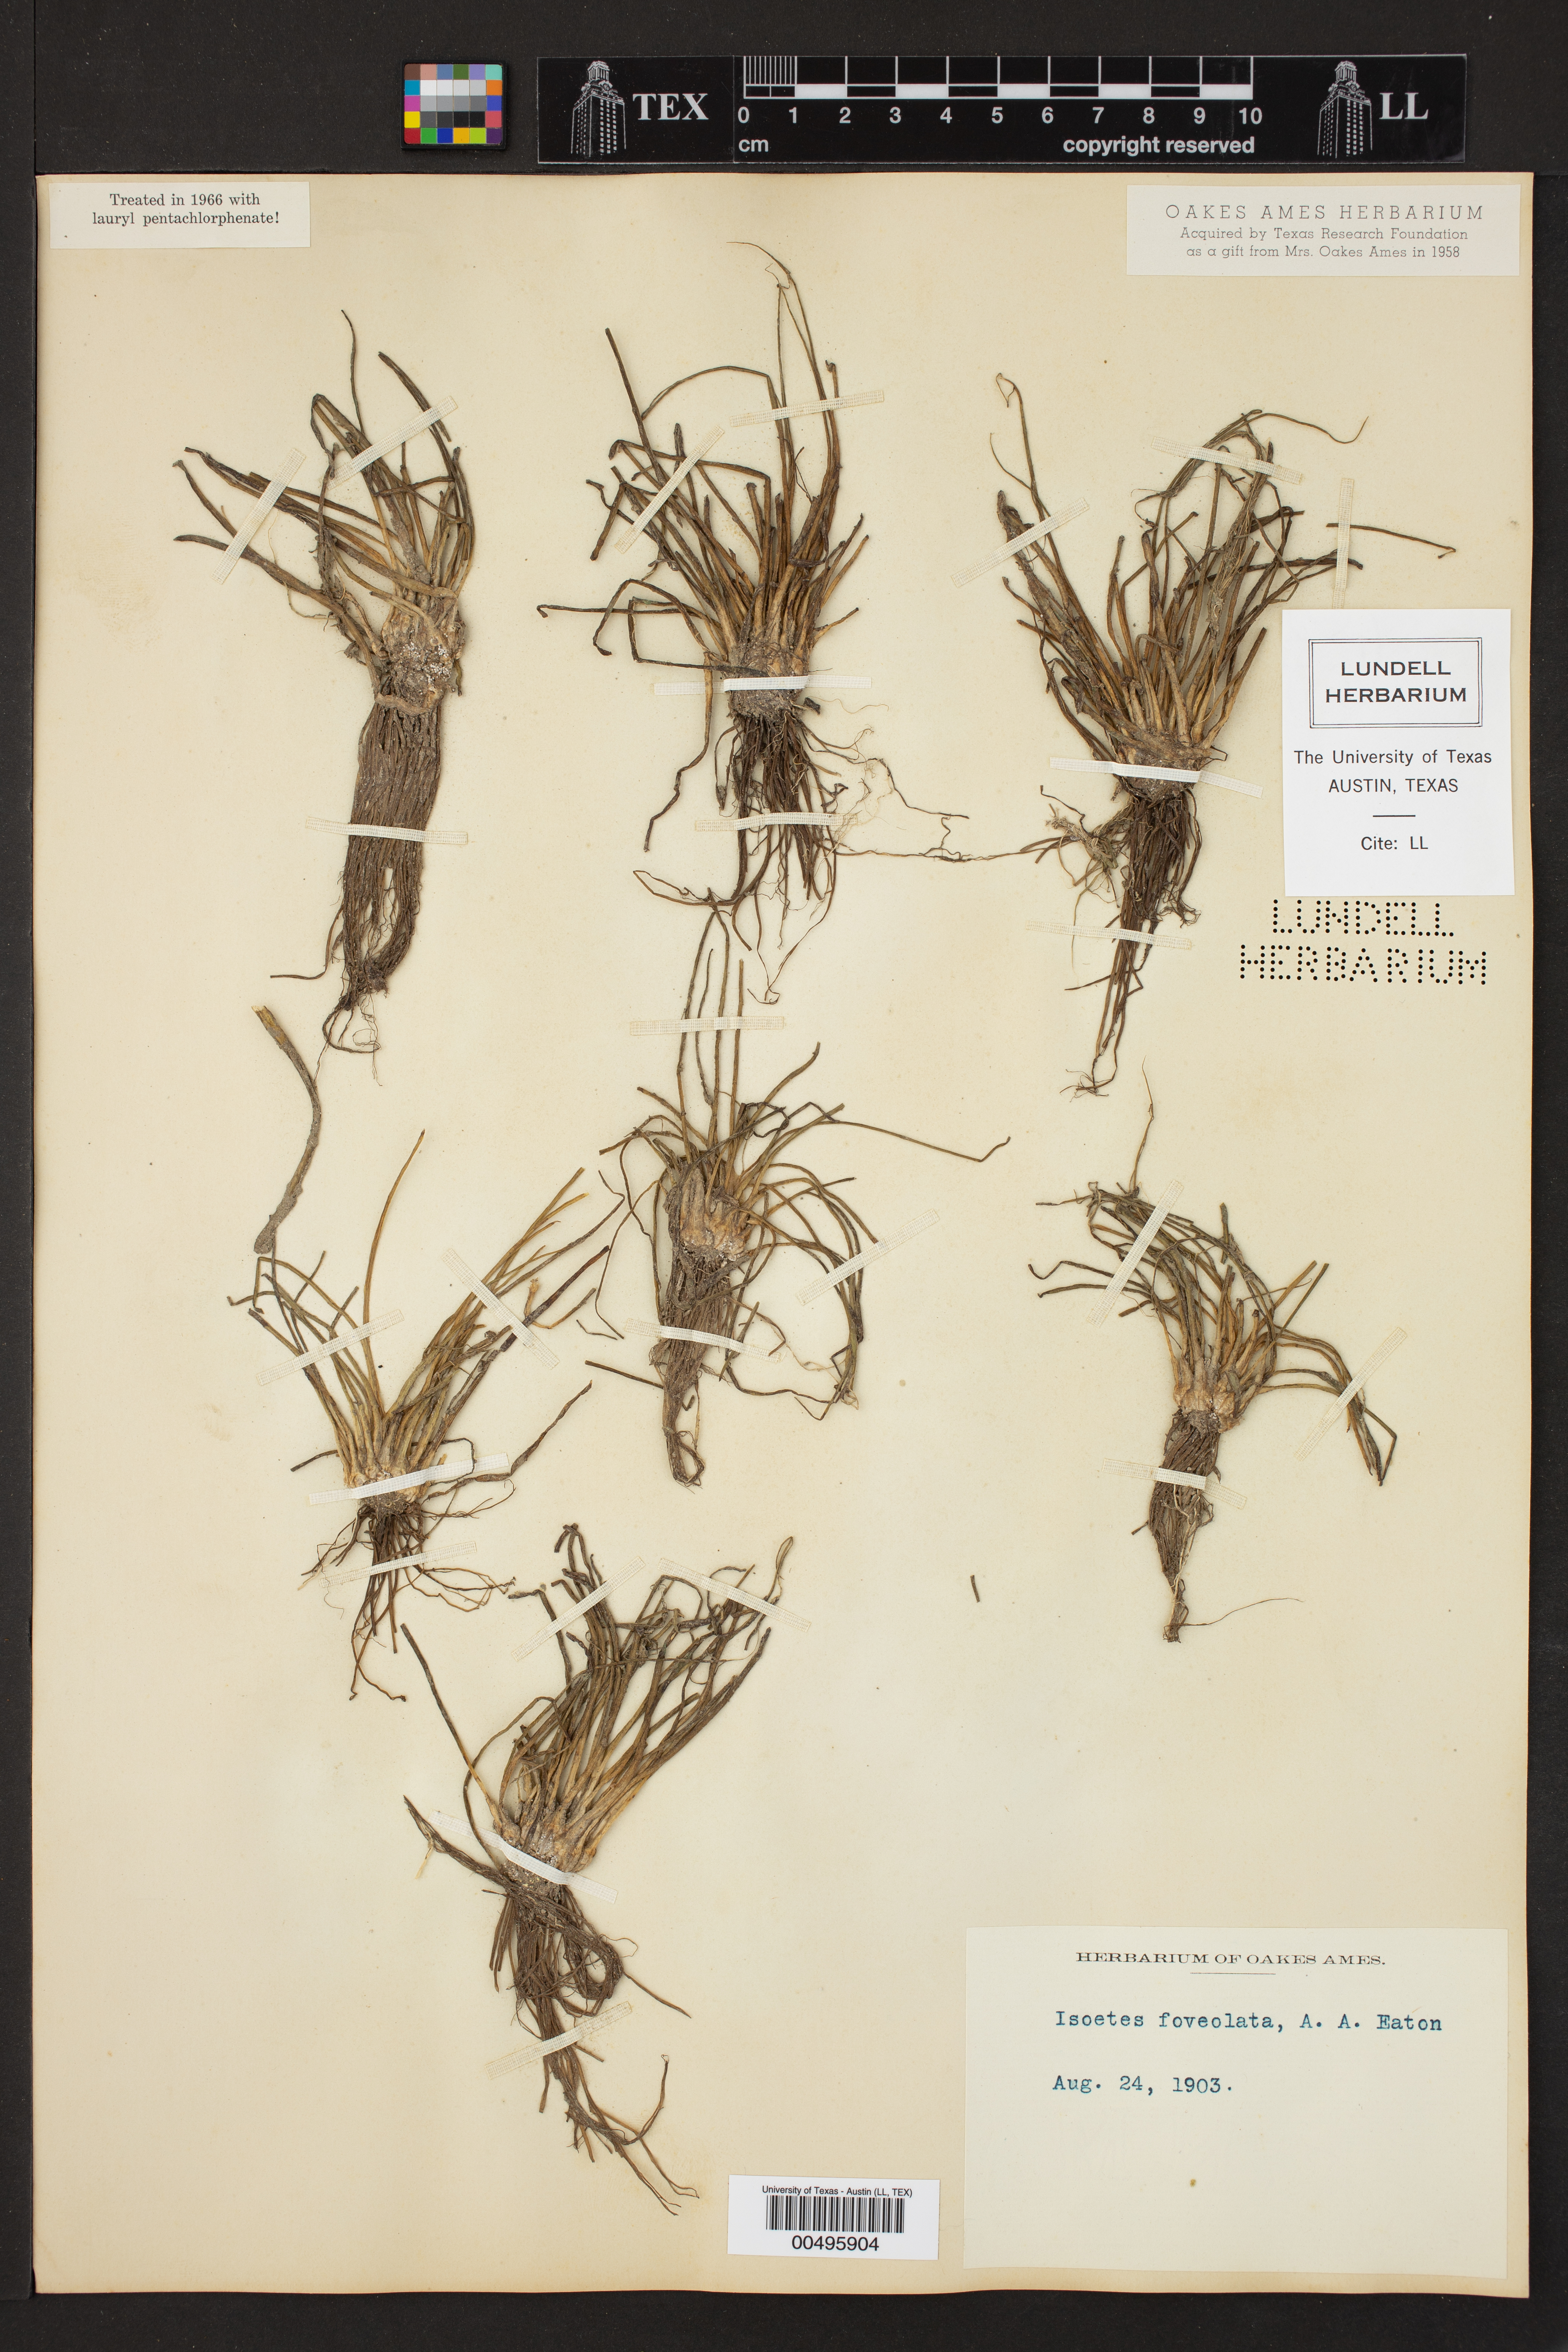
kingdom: Plantae
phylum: Tracheophyta
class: Lycopodiopsida
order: Isoetales
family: Isoetaceae
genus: Isoetes
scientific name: Isoetes foveolata
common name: Pitted quillwort
